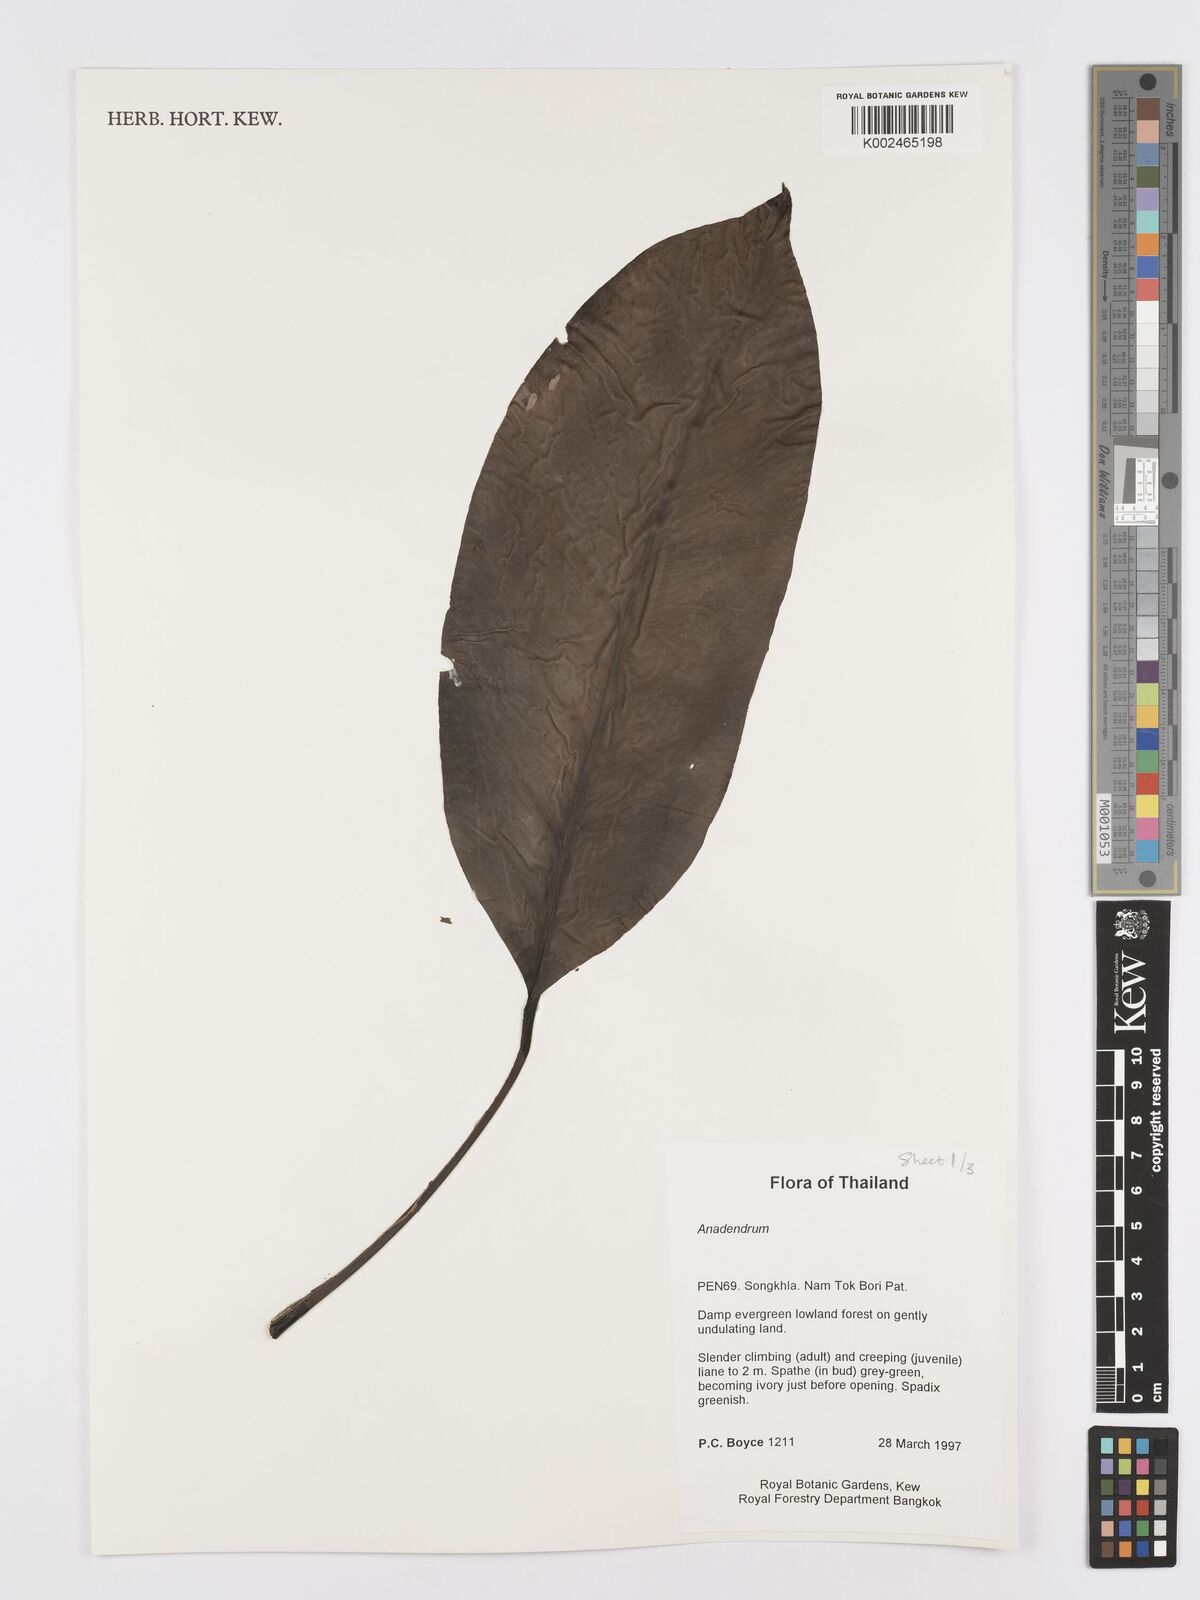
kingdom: Plantae
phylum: Tracheophyta
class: Liliopsida
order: Alismatales
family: Araceae
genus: Anadendrum
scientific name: Anadendrum
